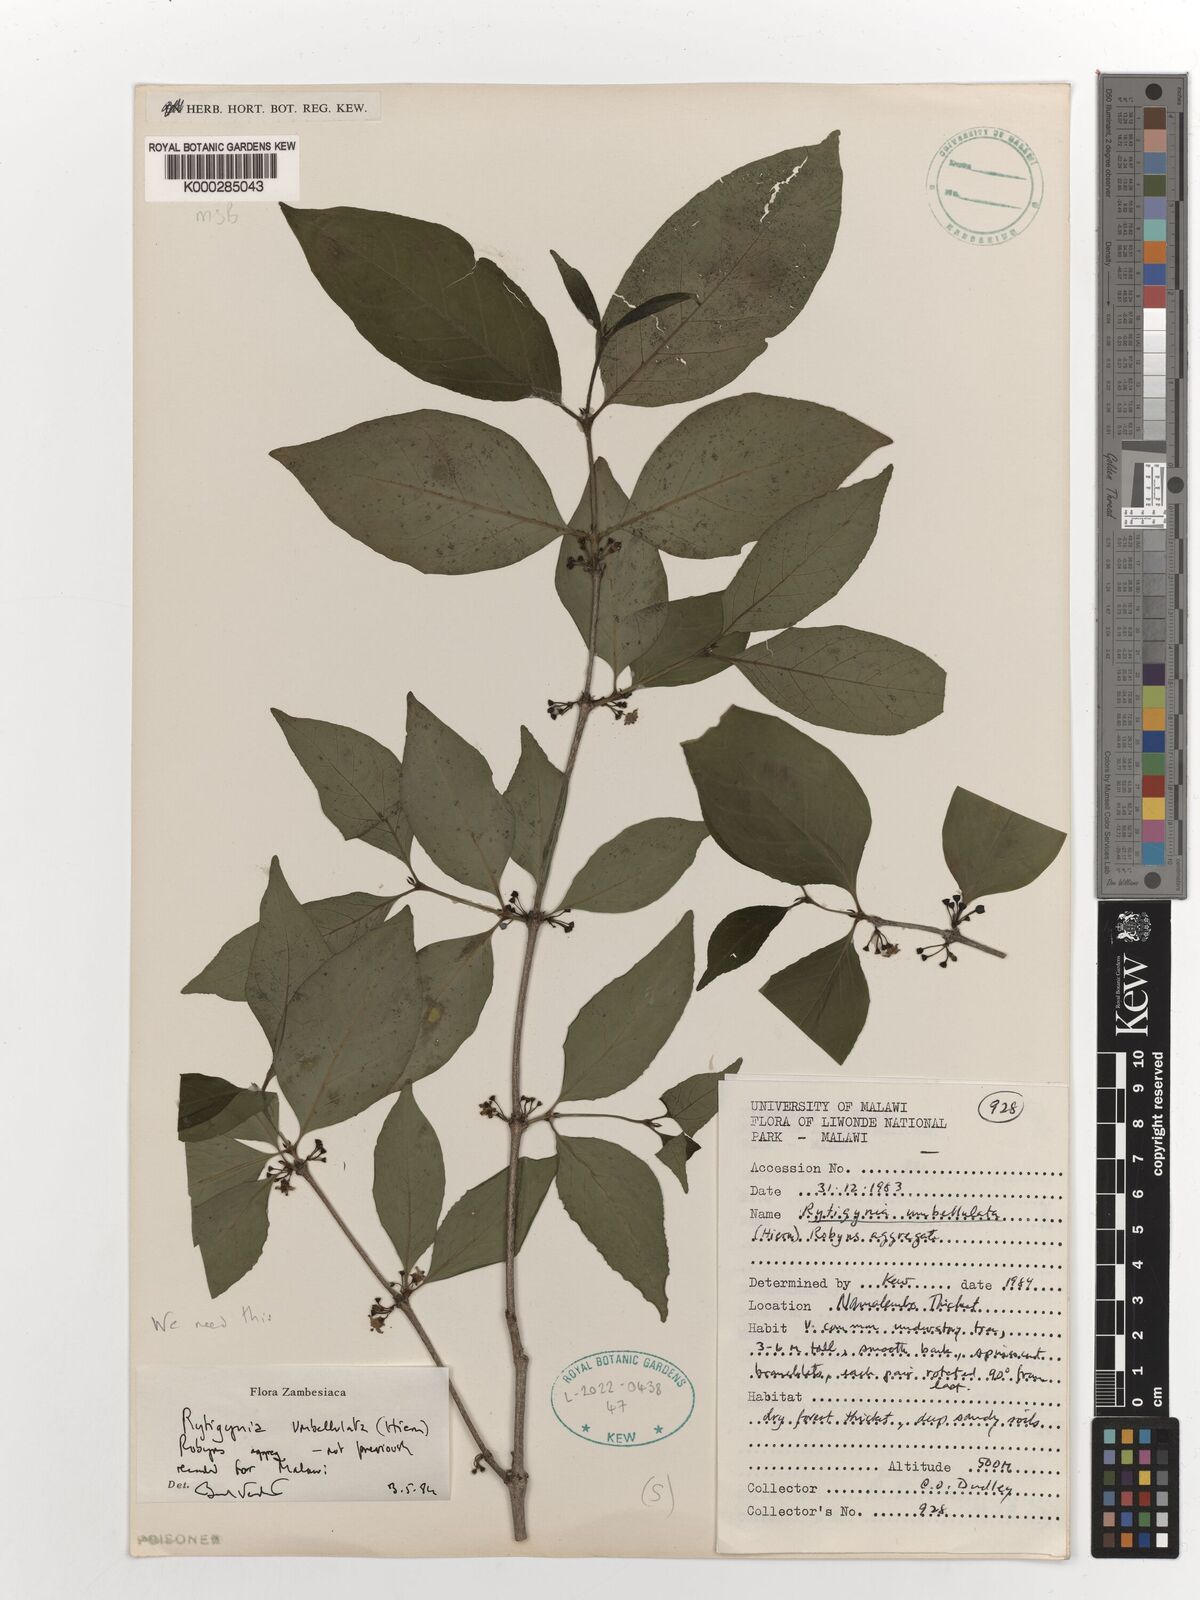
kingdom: Plantae
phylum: Tracheophyta
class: Magnoliopsida
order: Gentianales
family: Rubiaceae
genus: Rytigynia
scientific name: Rytigynia umbellulata
